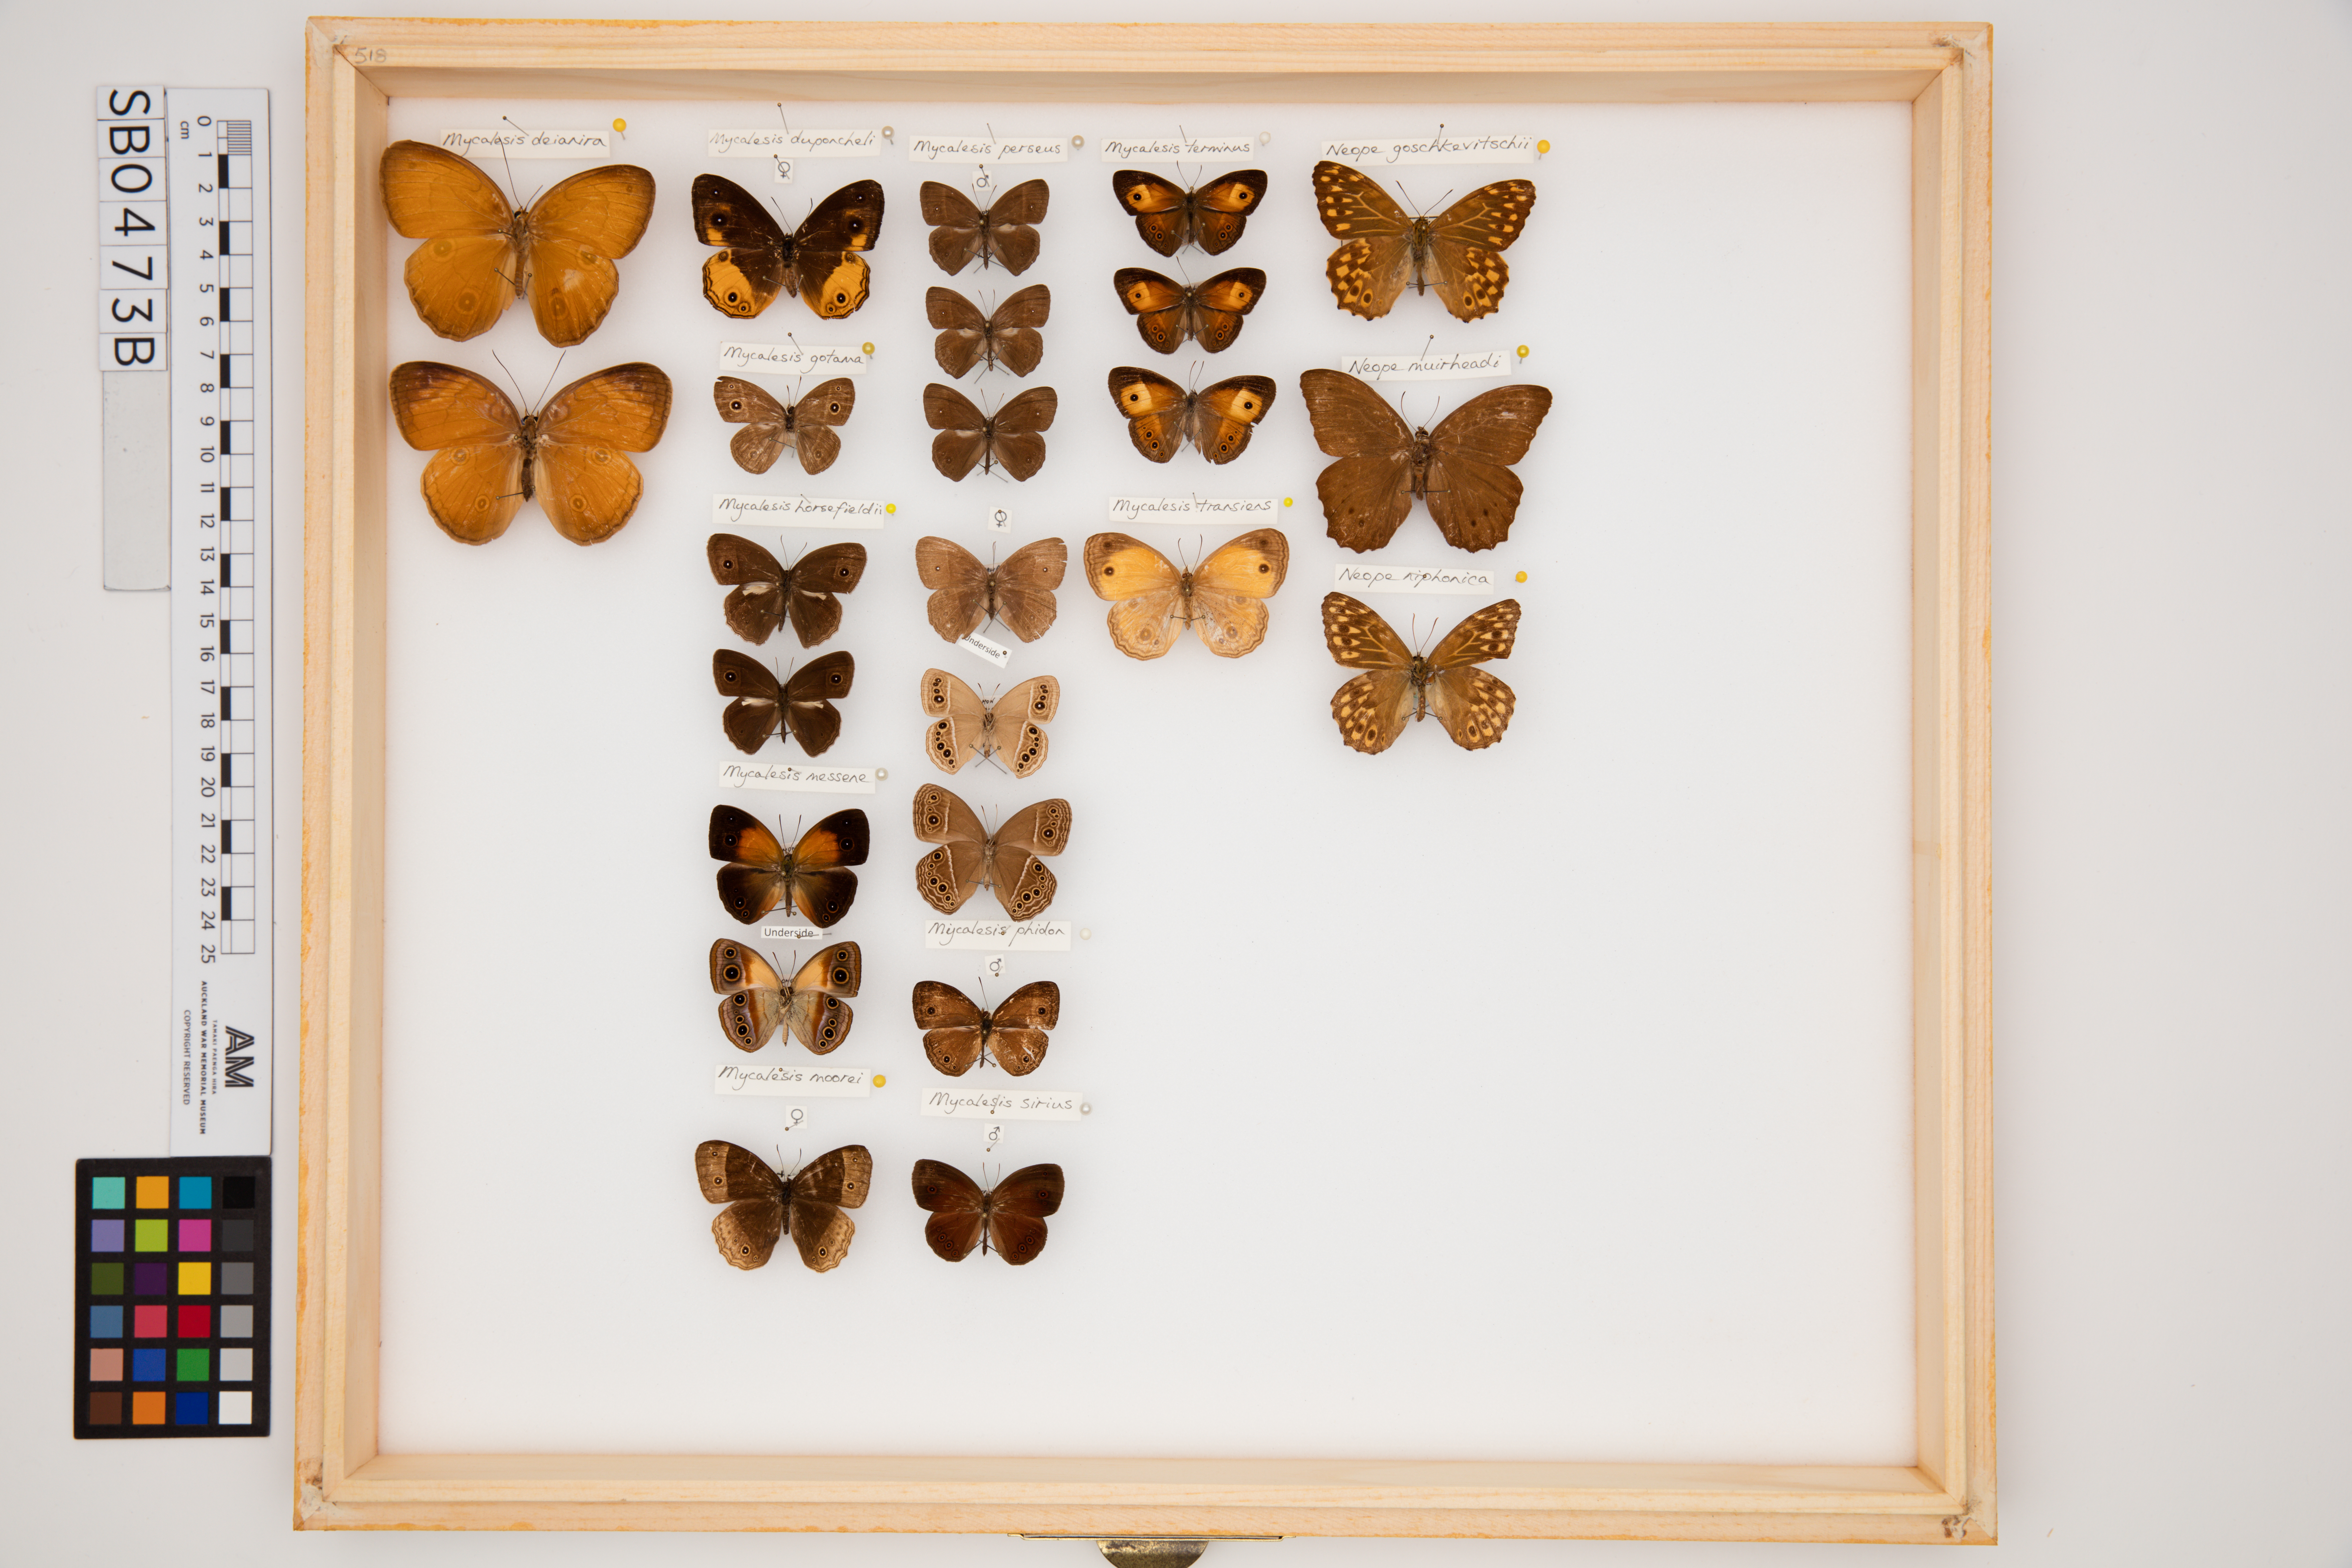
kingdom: Animalia
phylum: Arthropoda
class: Insecta
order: Lepidoptera
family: Nymphalidae
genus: Mycalesis
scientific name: Mycalesis dexamenus
